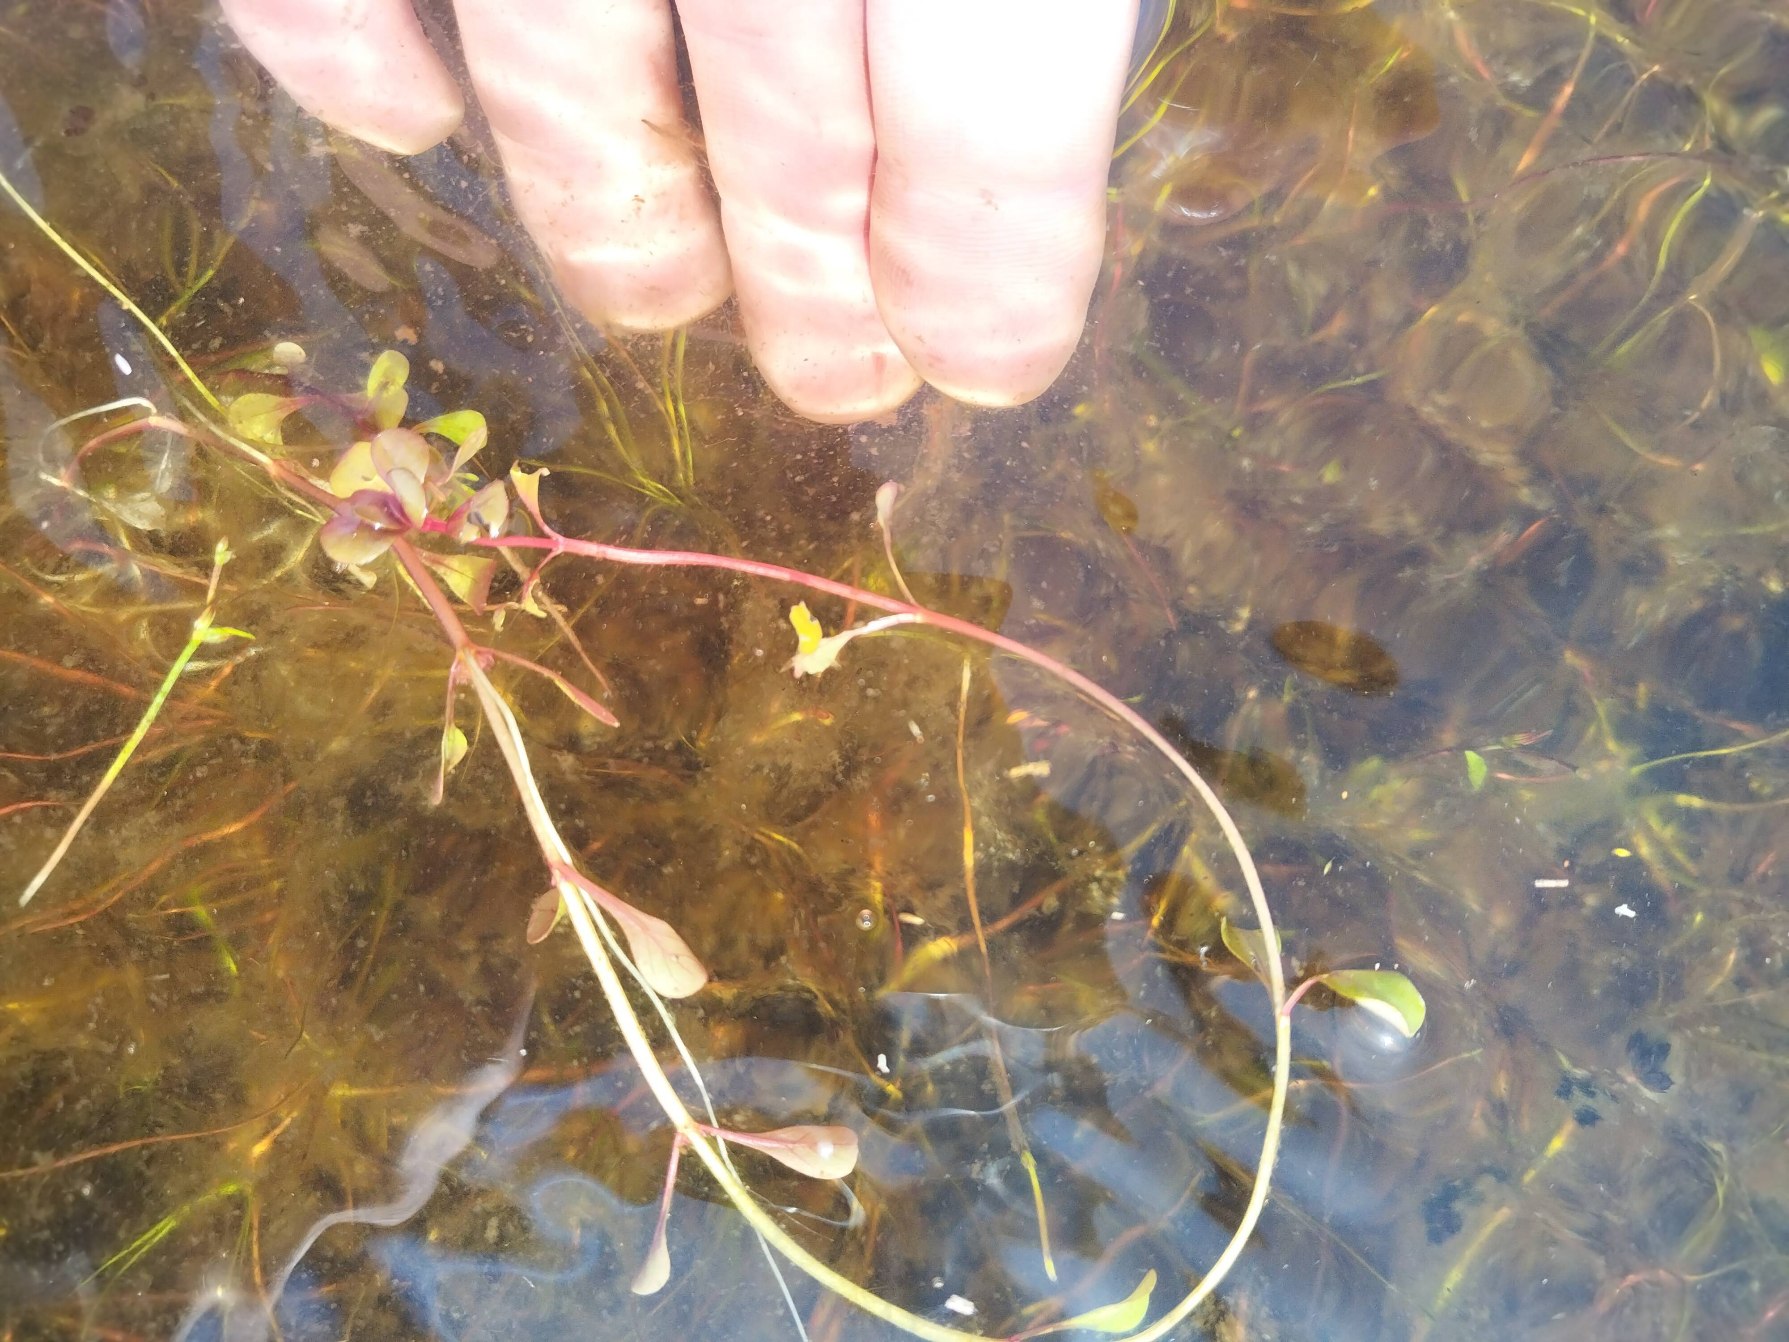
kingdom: Plantae
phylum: Tracheophyta
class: Magnoliopsida
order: Myrtales
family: Lythraceae
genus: Lythrum
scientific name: Lythrum portula
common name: Vandportulak
